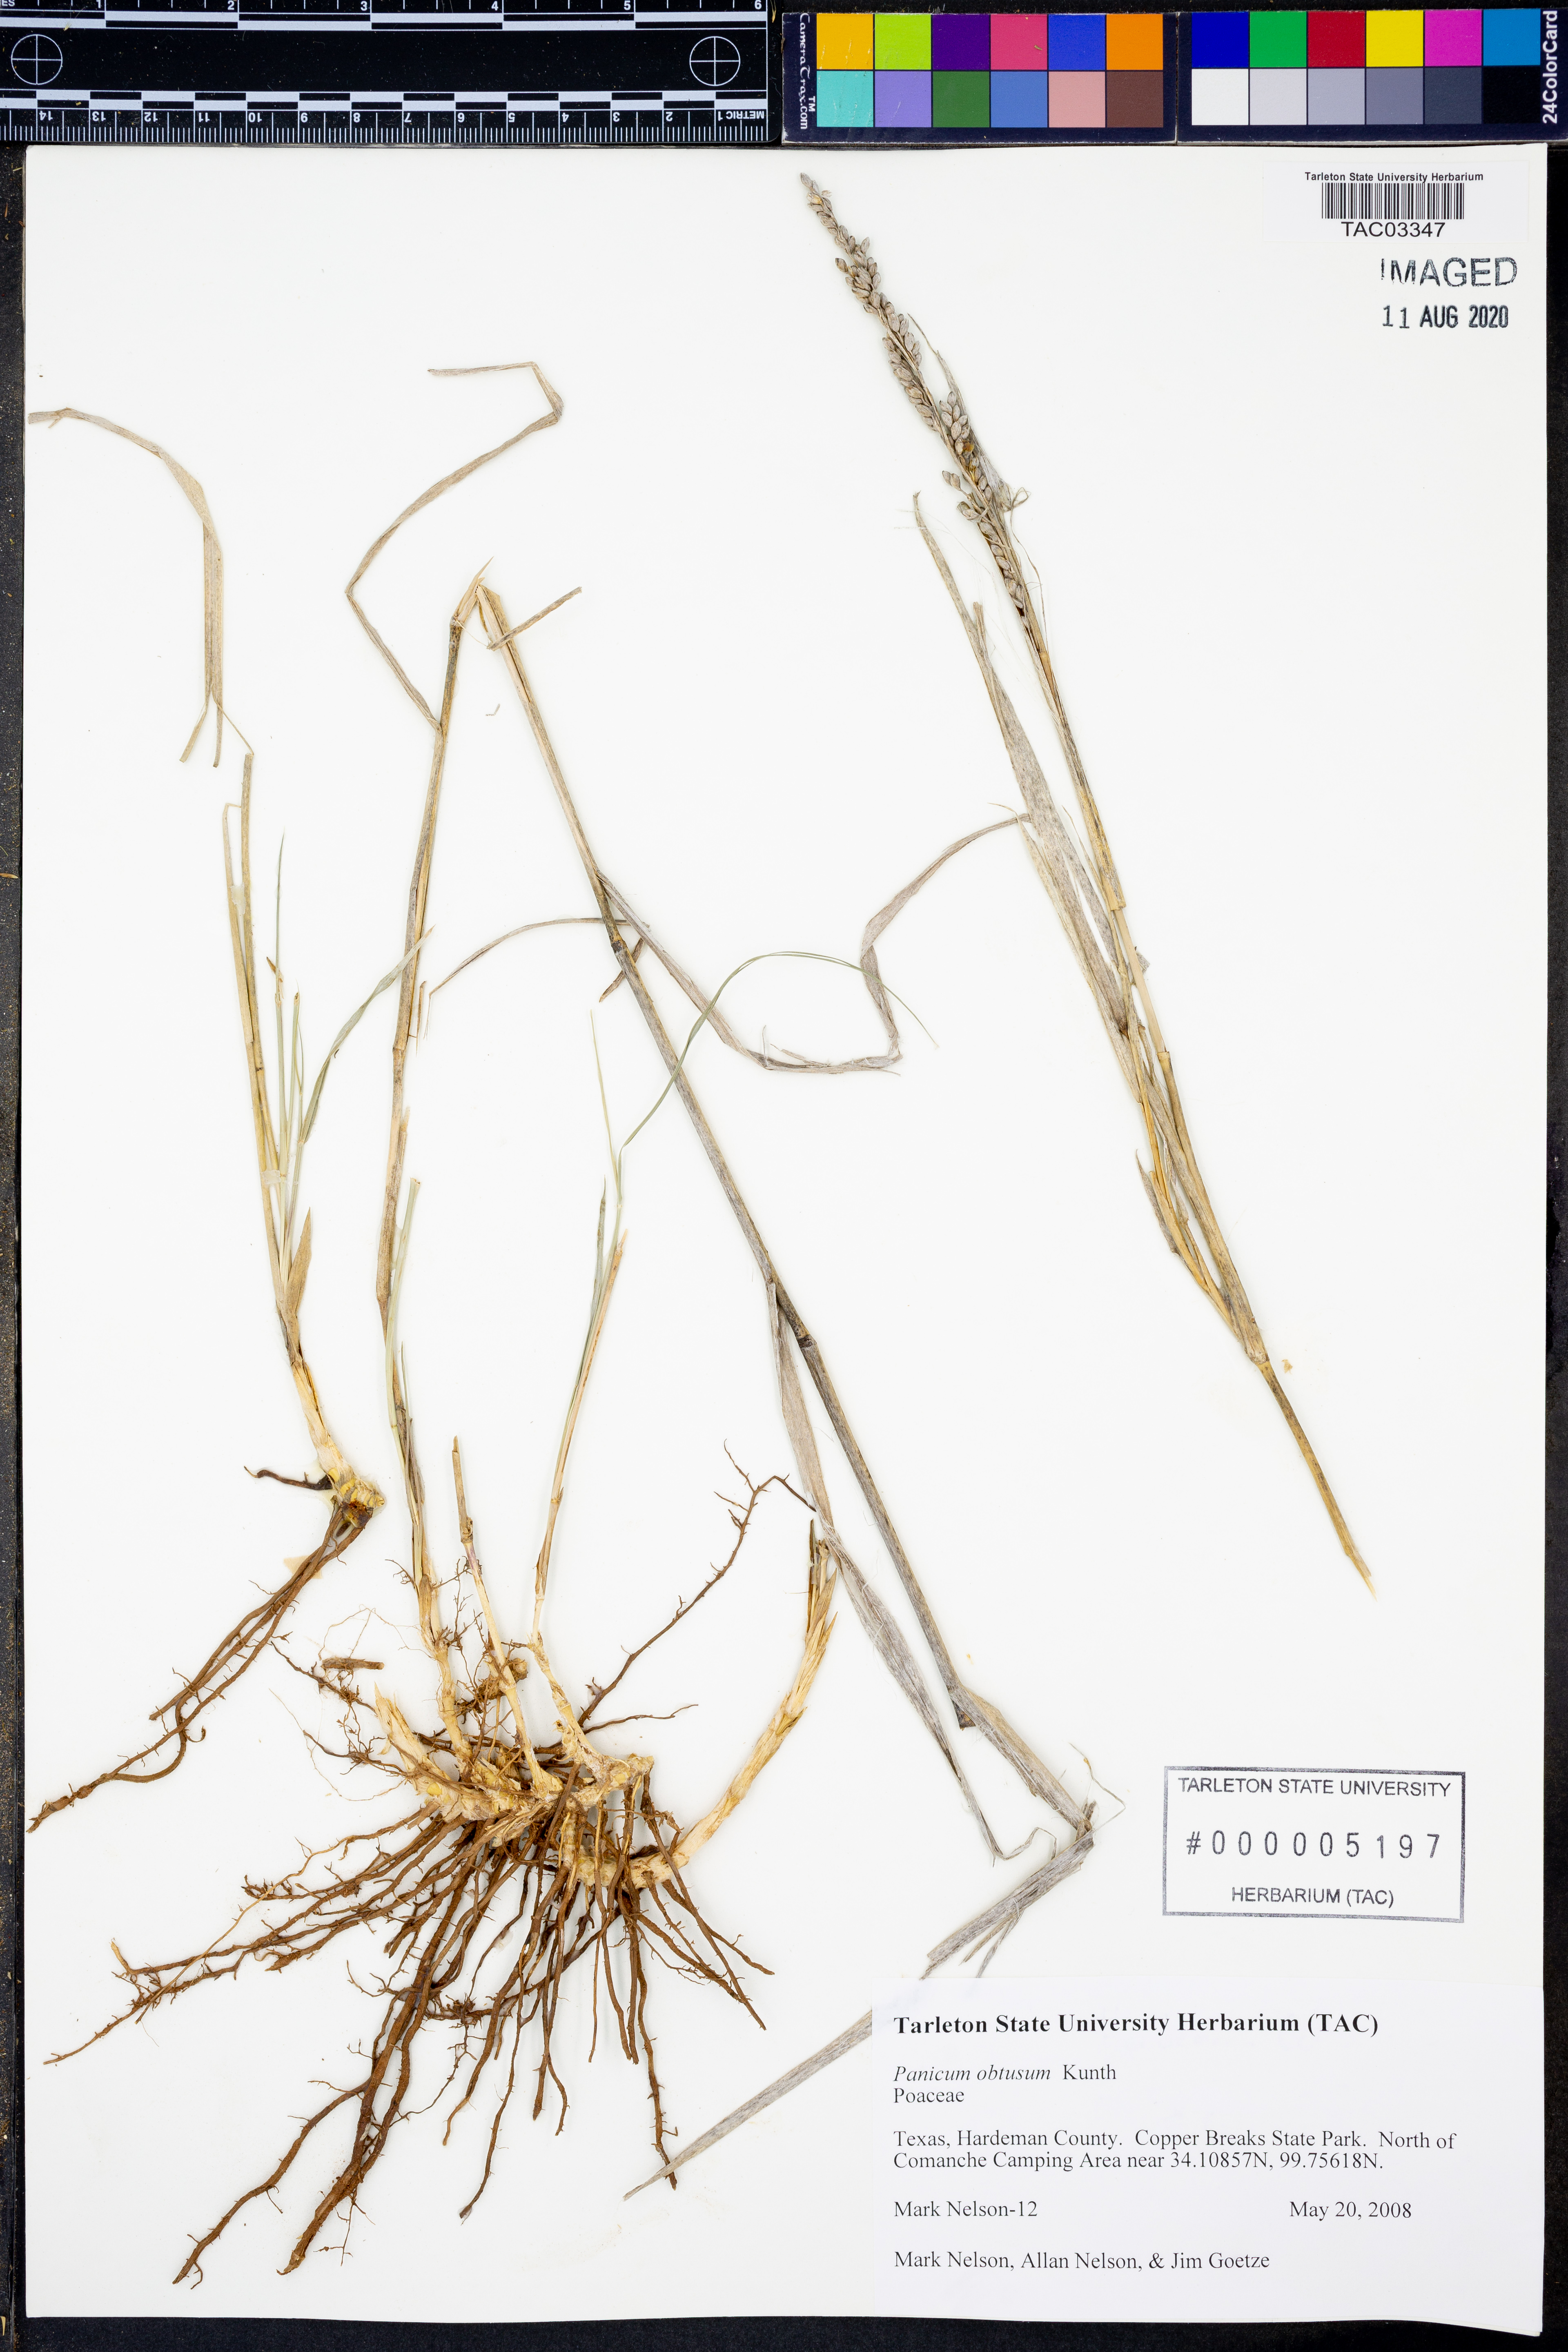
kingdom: Plantae
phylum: Tracheophyta
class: Liliopsida
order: Poales
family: Poaceae
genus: Hopia
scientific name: Hopia obtusa
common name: Vine-mesquite
